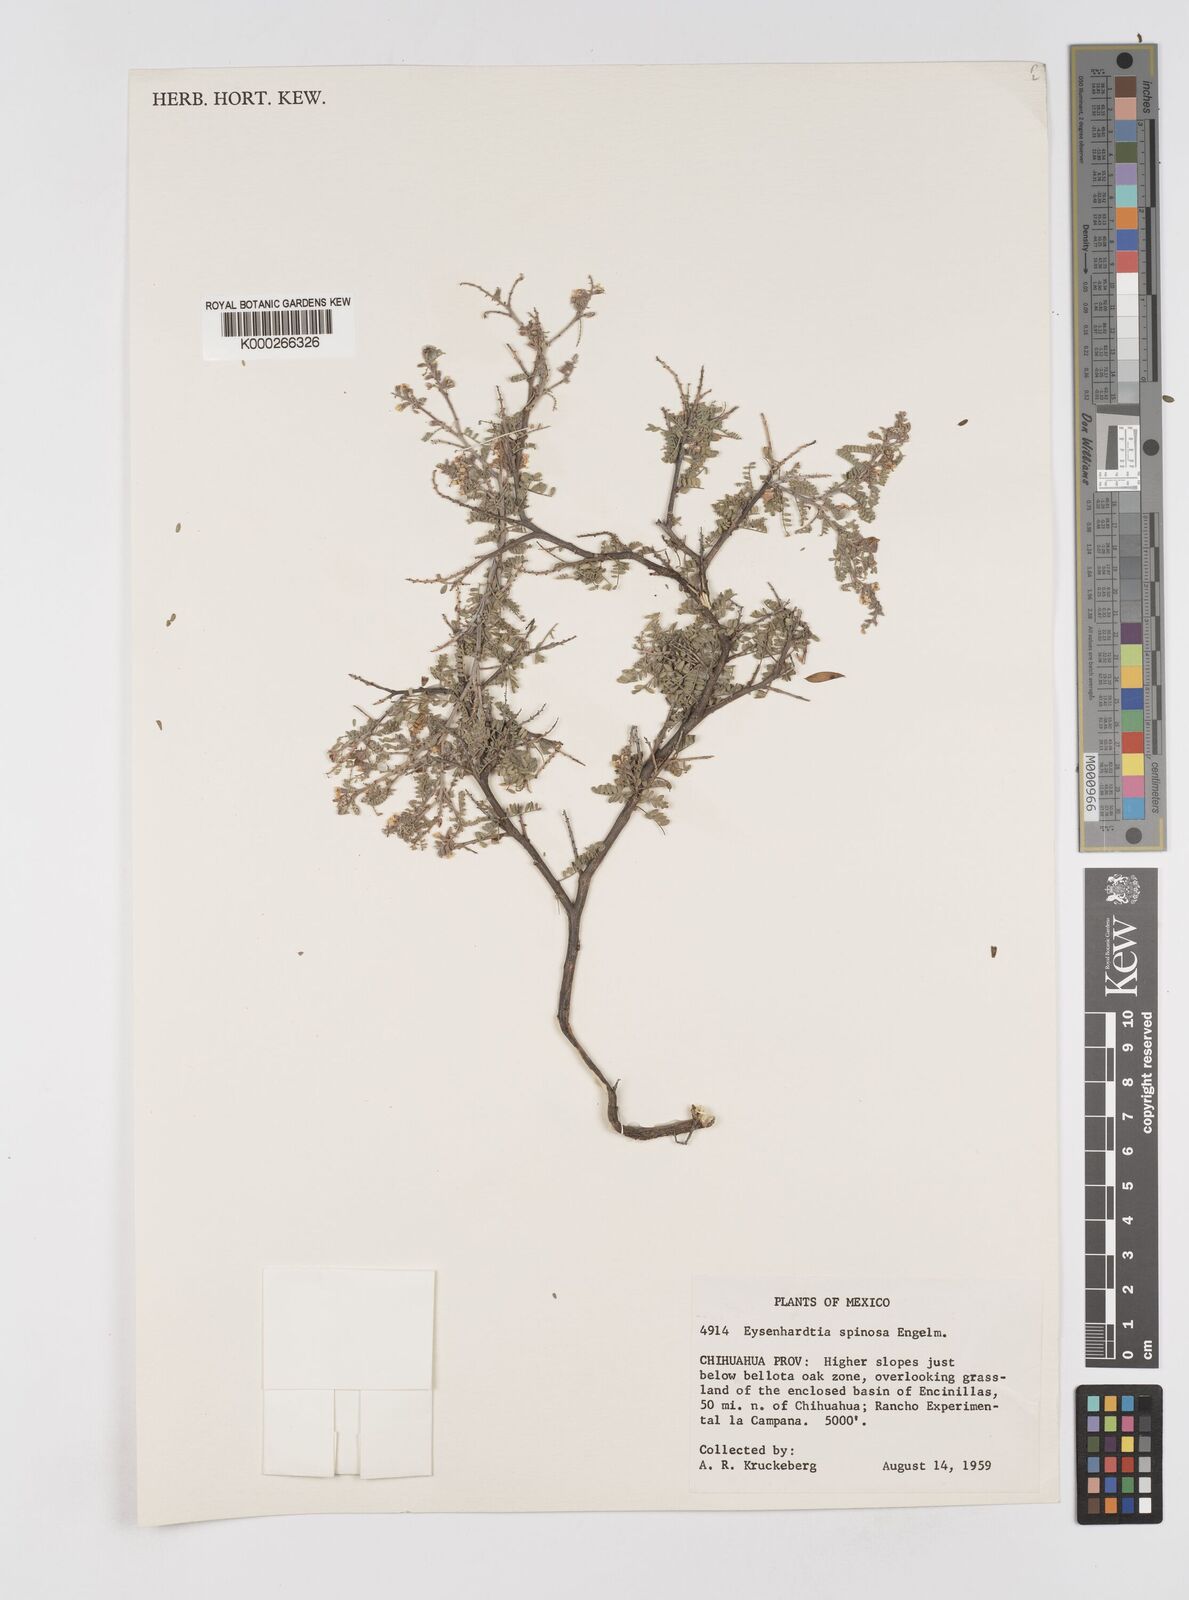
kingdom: Plantae
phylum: Tracheophyta
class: Magnoliopsida
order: Fabales
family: Fabaceae
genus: Eysenhardtia
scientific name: Eysenhardtia spinosa
